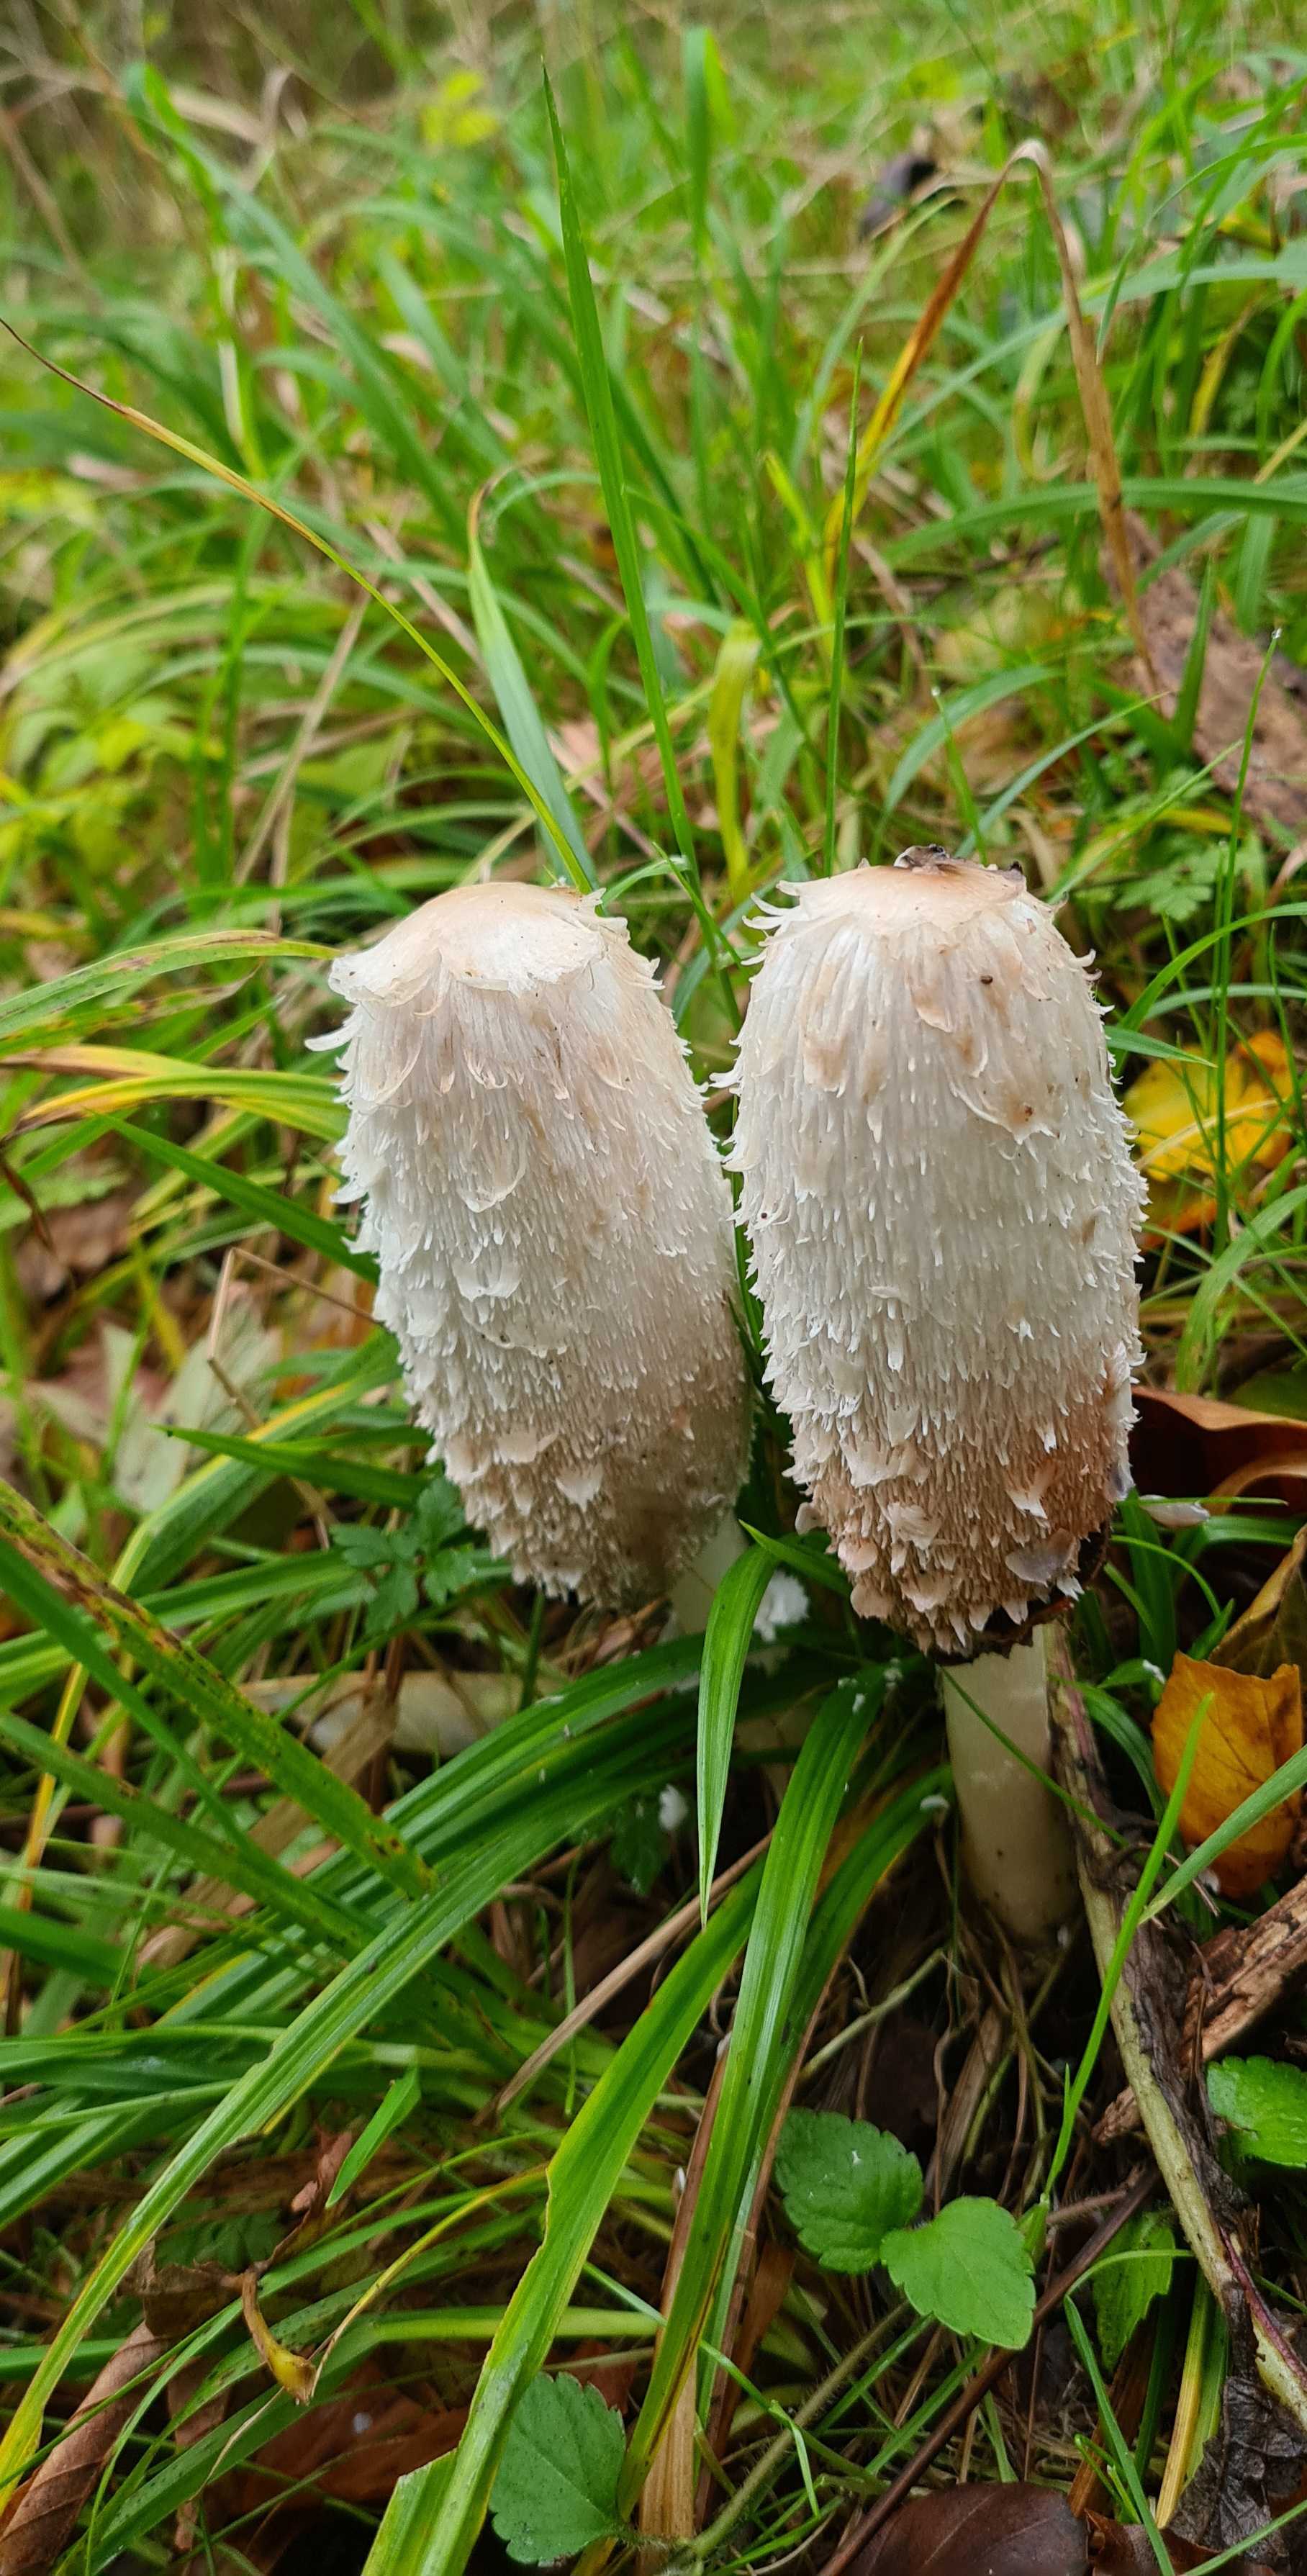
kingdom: Fungi
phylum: Basidiomycota
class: Agaricomycetes
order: Agaricales
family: Agaricaceae
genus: Coprinus
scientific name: Coprinus comatus
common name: stor parykhat
